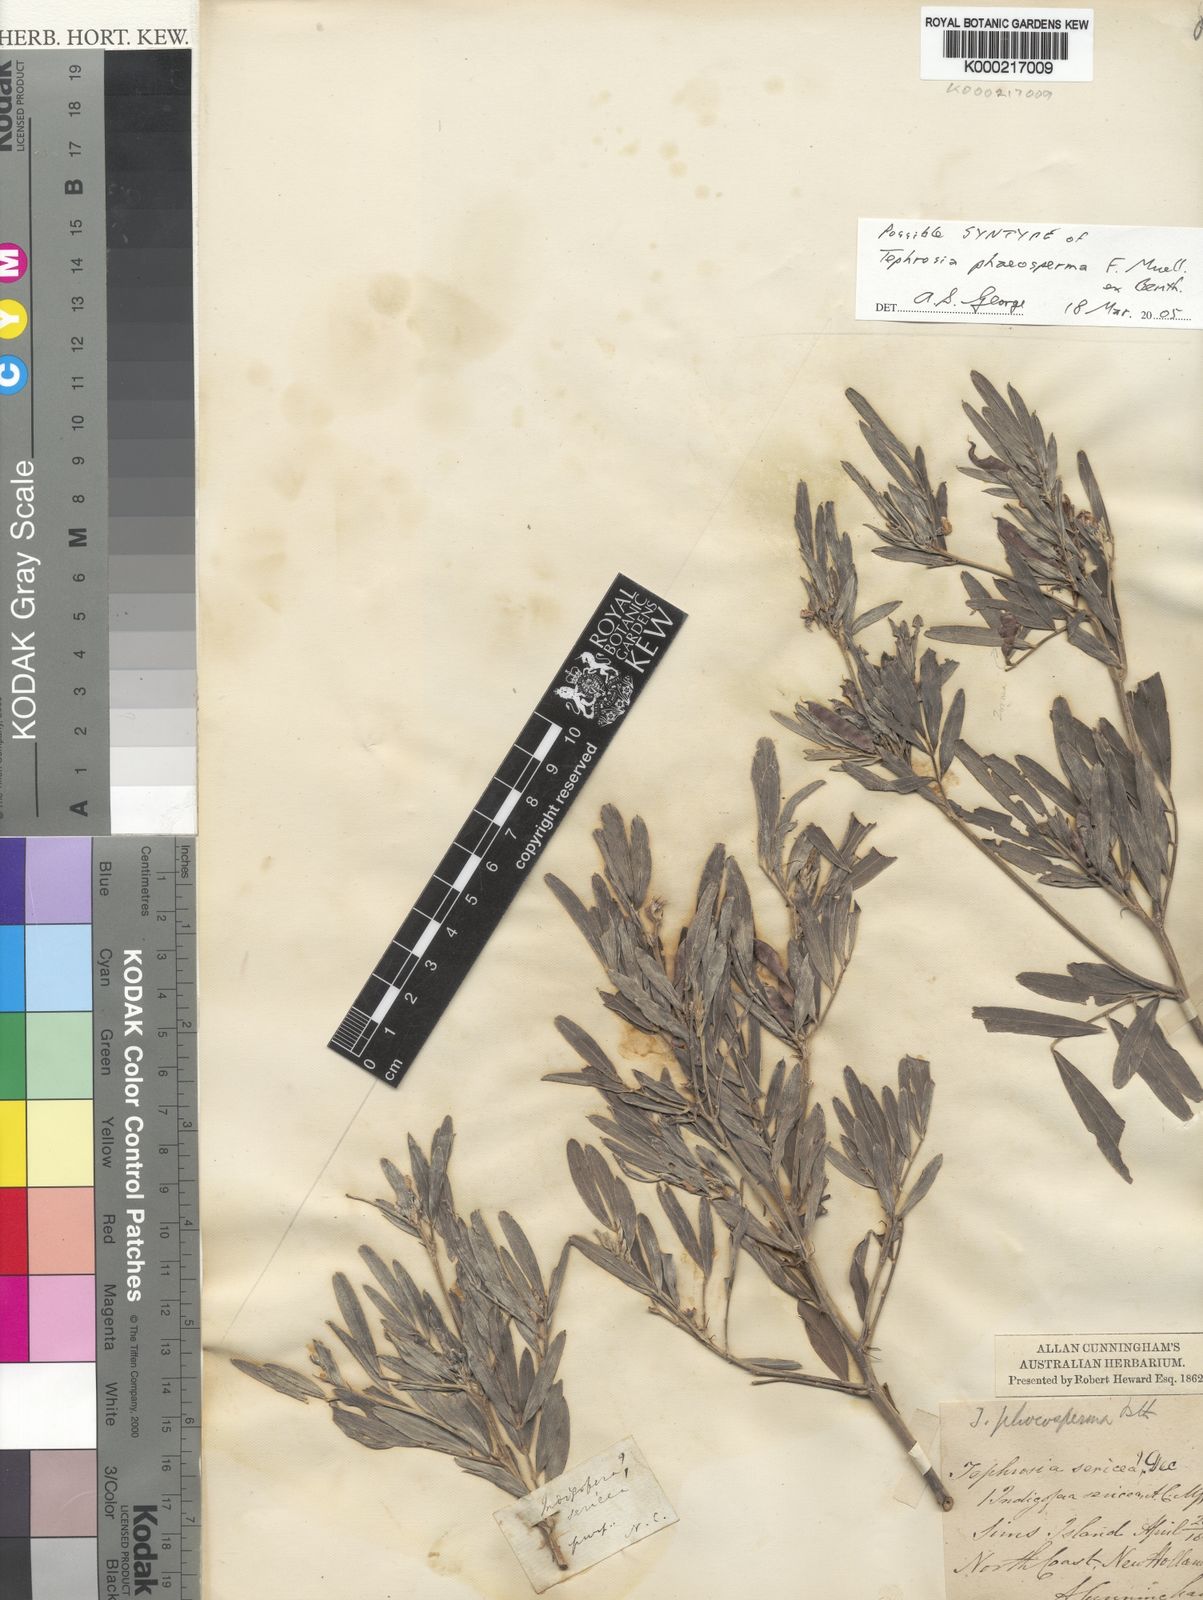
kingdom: Plantae
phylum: Tracheophyta
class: Magnoliopsida
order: Fabales
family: Fabaceae
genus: Tephrosia
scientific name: Tephrosia phaeosperma
